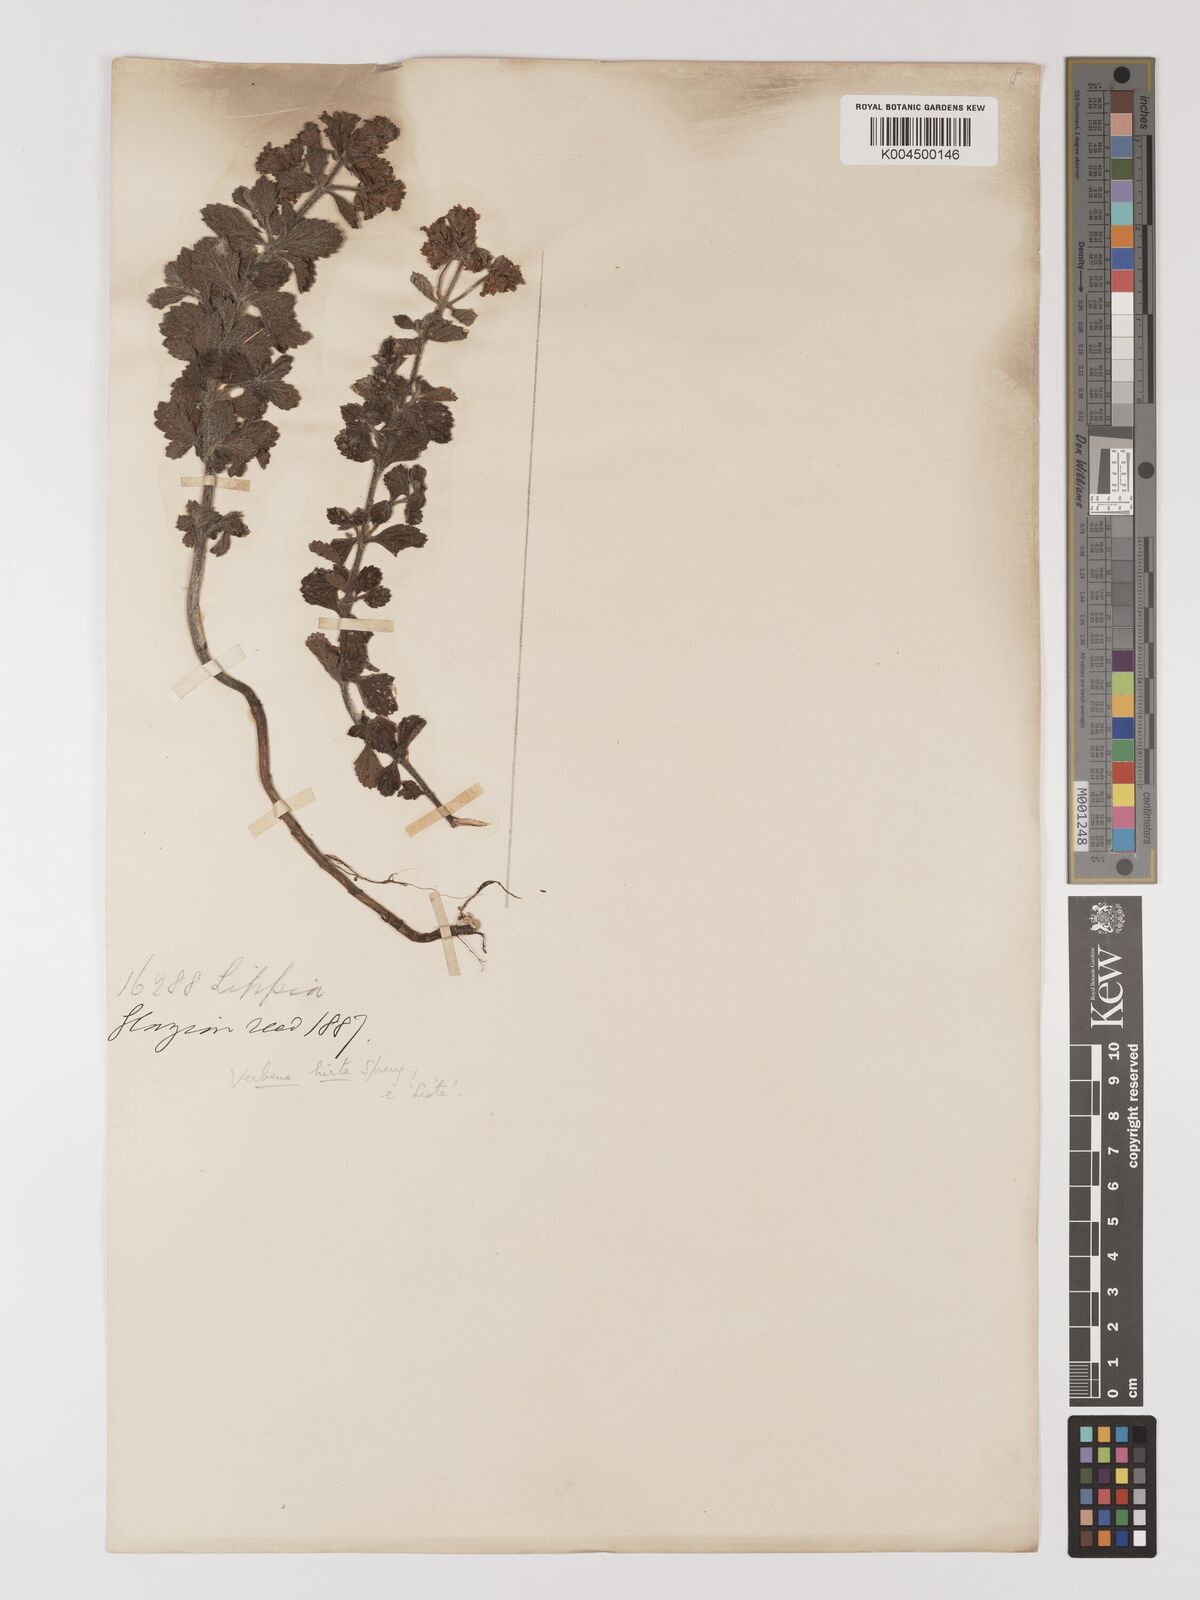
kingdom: Plantae
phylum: Tracheophyta
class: Magnoliopsida
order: Lamiales
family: Verbenaceae
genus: Verbena
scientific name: Verbena hirta
